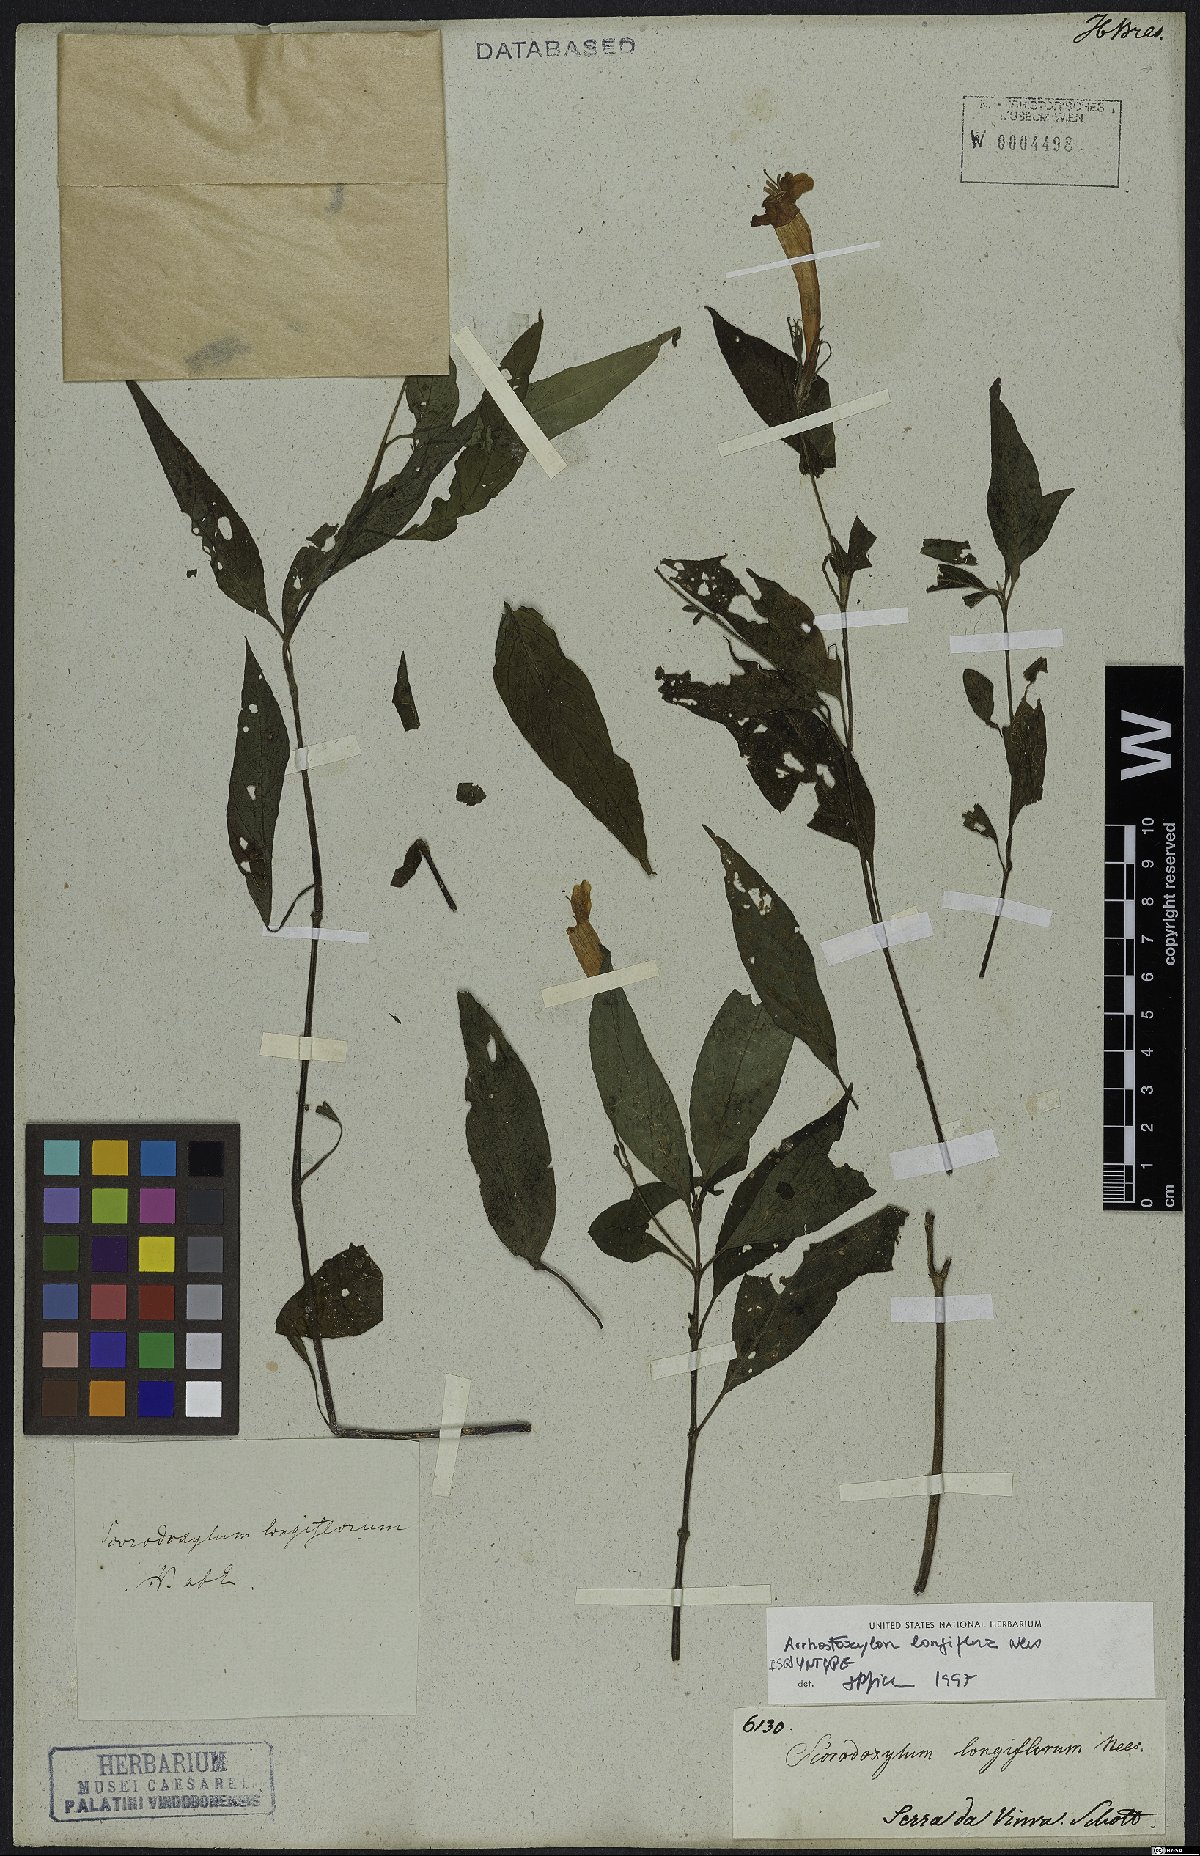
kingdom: Plantae
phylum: Tracheophyta
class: Magnoliopsida
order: Lamiales
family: Acanthaceae
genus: Ruellia
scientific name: Ruellia Arrhostoxylum longiflorum
